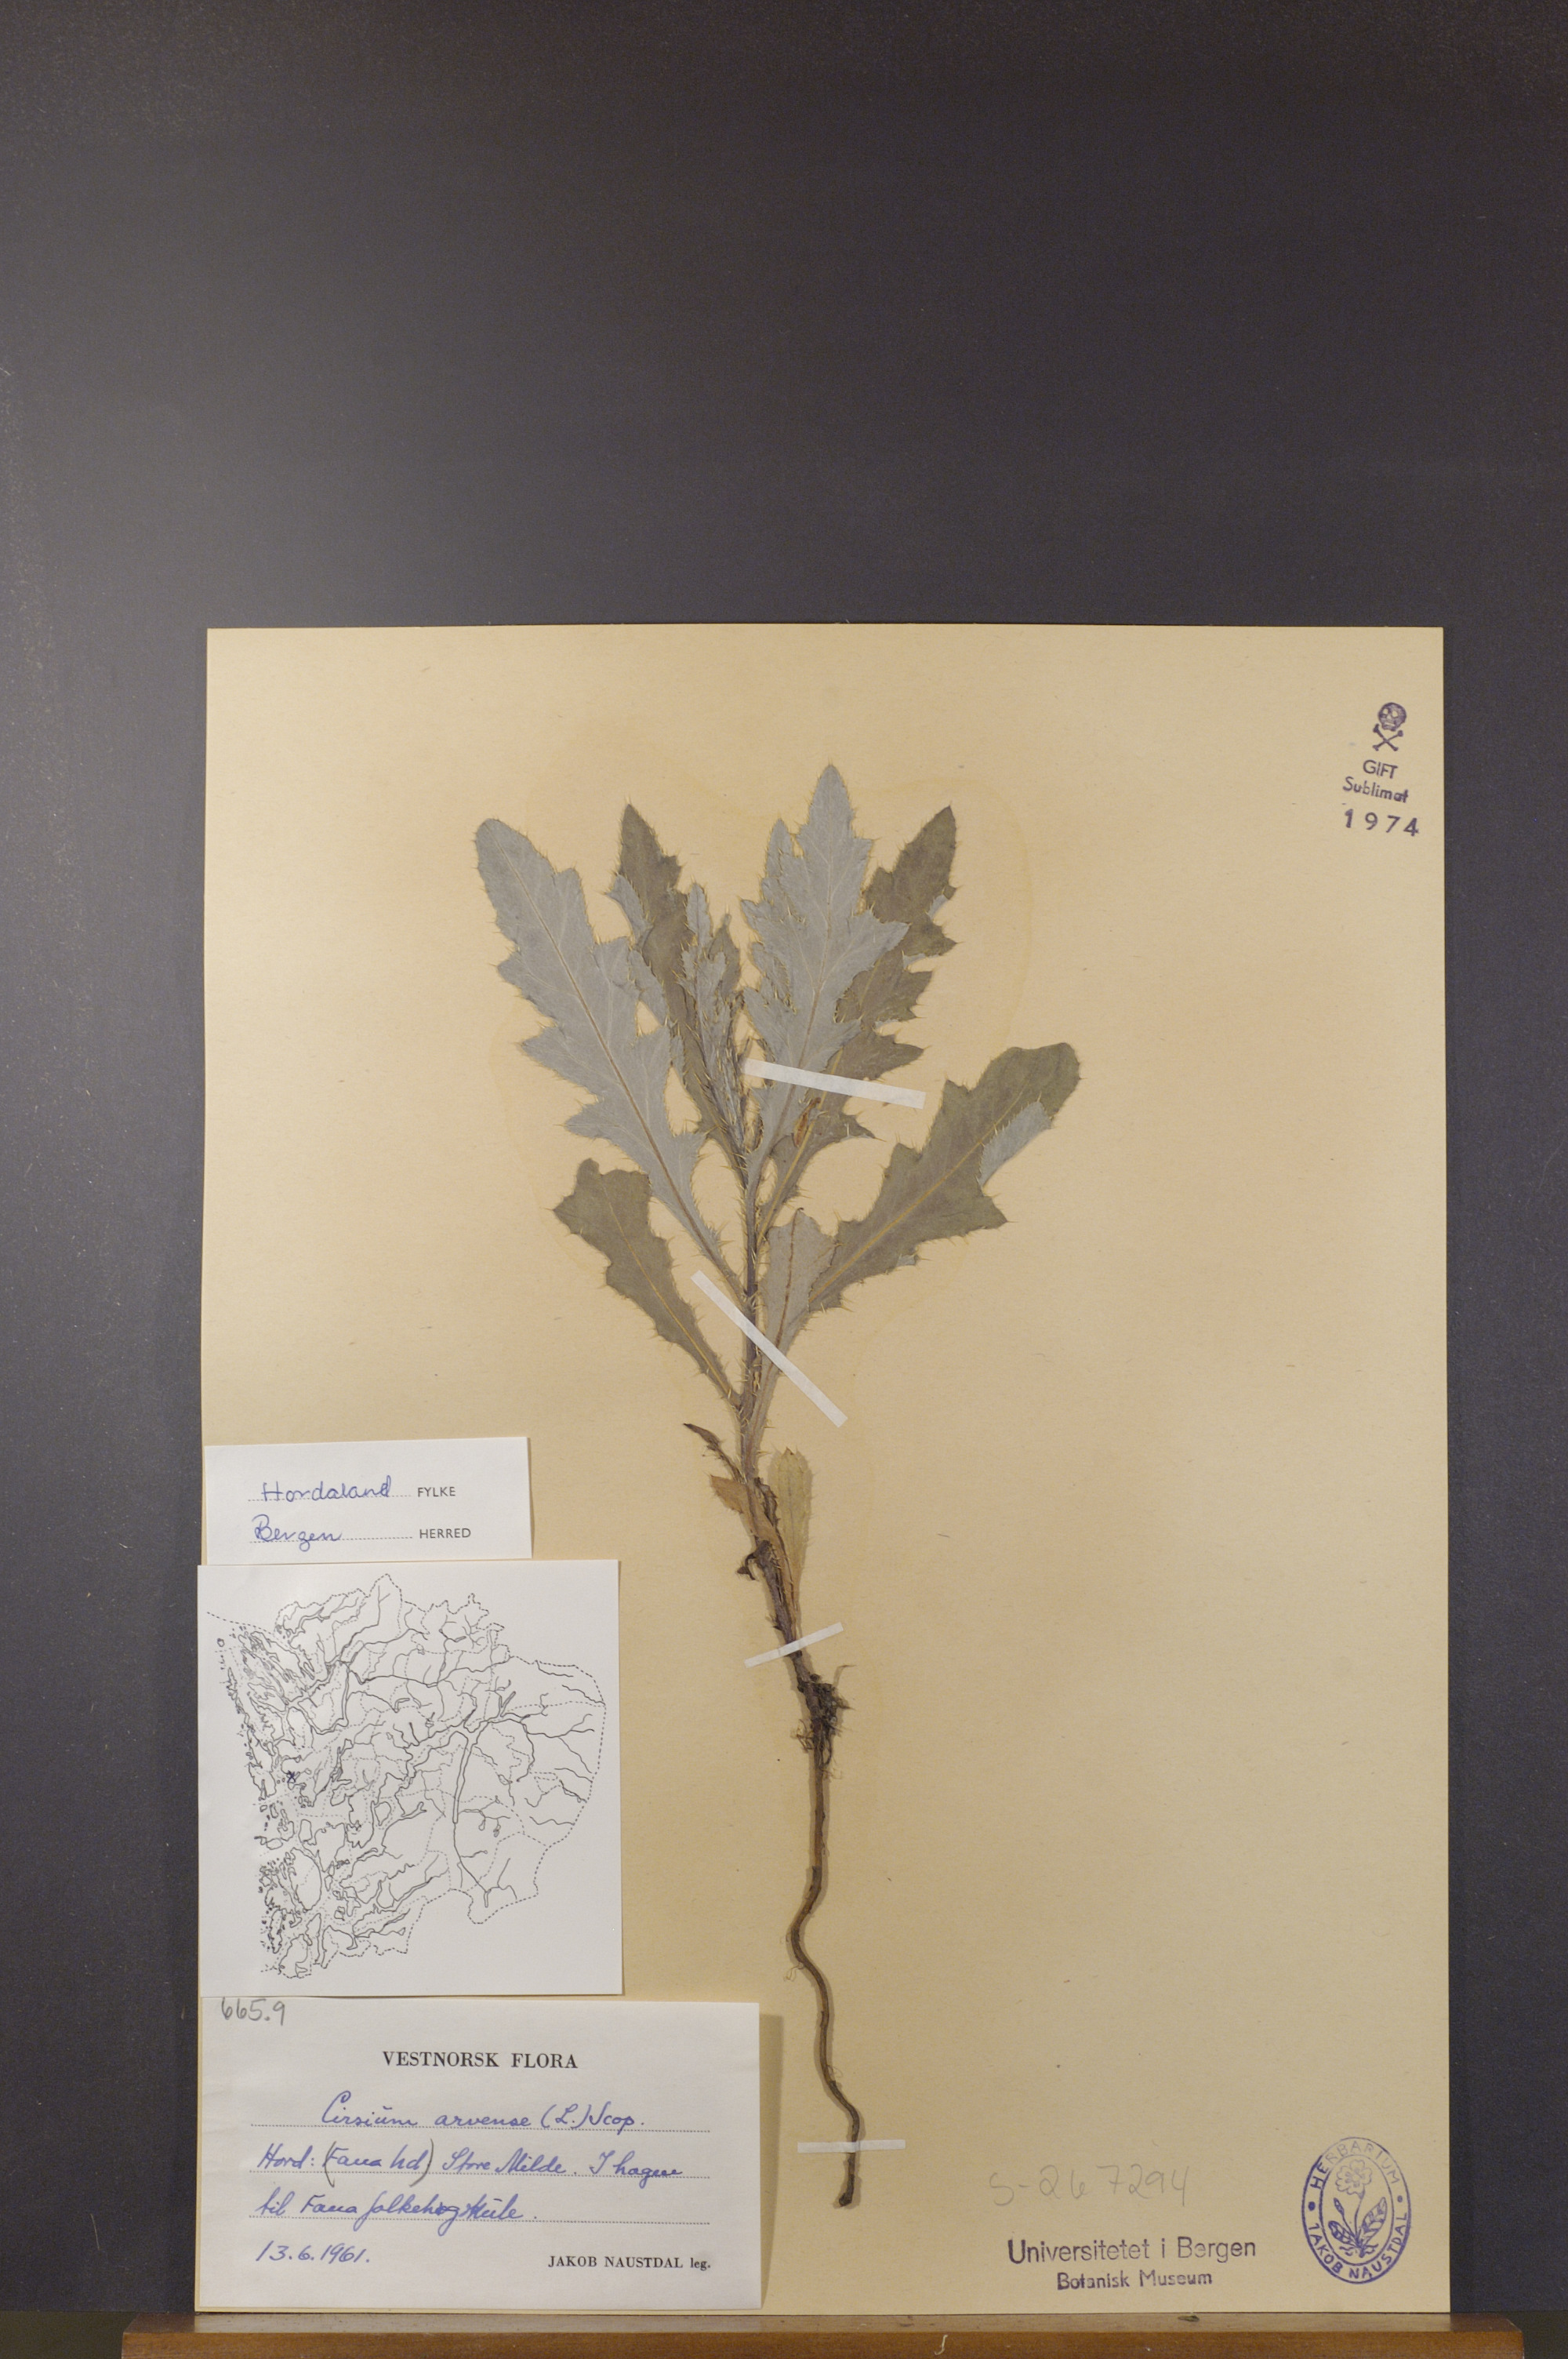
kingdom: Plantae
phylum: Tracheophyta
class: Magnoliopsida
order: Asterales
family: Asteraceae
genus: Cirsium
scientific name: Cirsium arvense
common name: Creeping thistle
